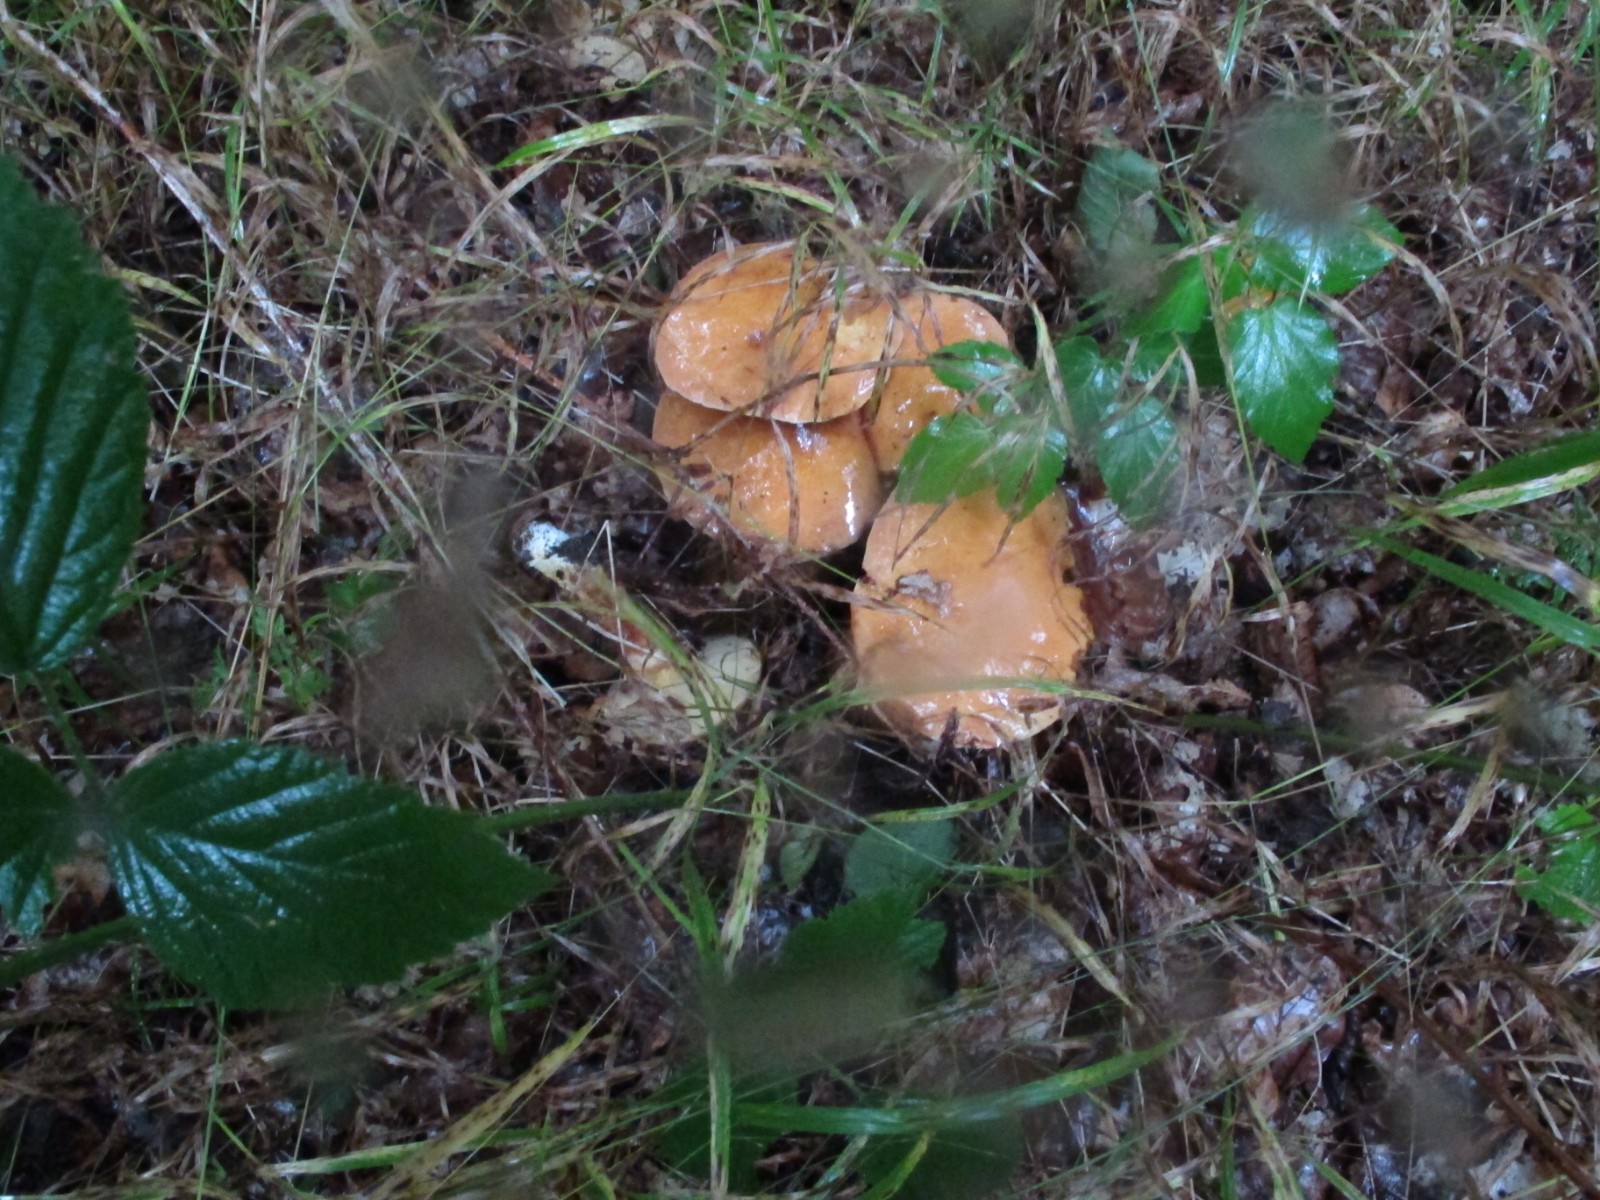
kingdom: Fungi
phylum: Basidiomycota
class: Agaricomycetes
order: Boletales
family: Suillaceae
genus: Suillus
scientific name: Suillus grevillei
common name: lærke-slimrørhat
